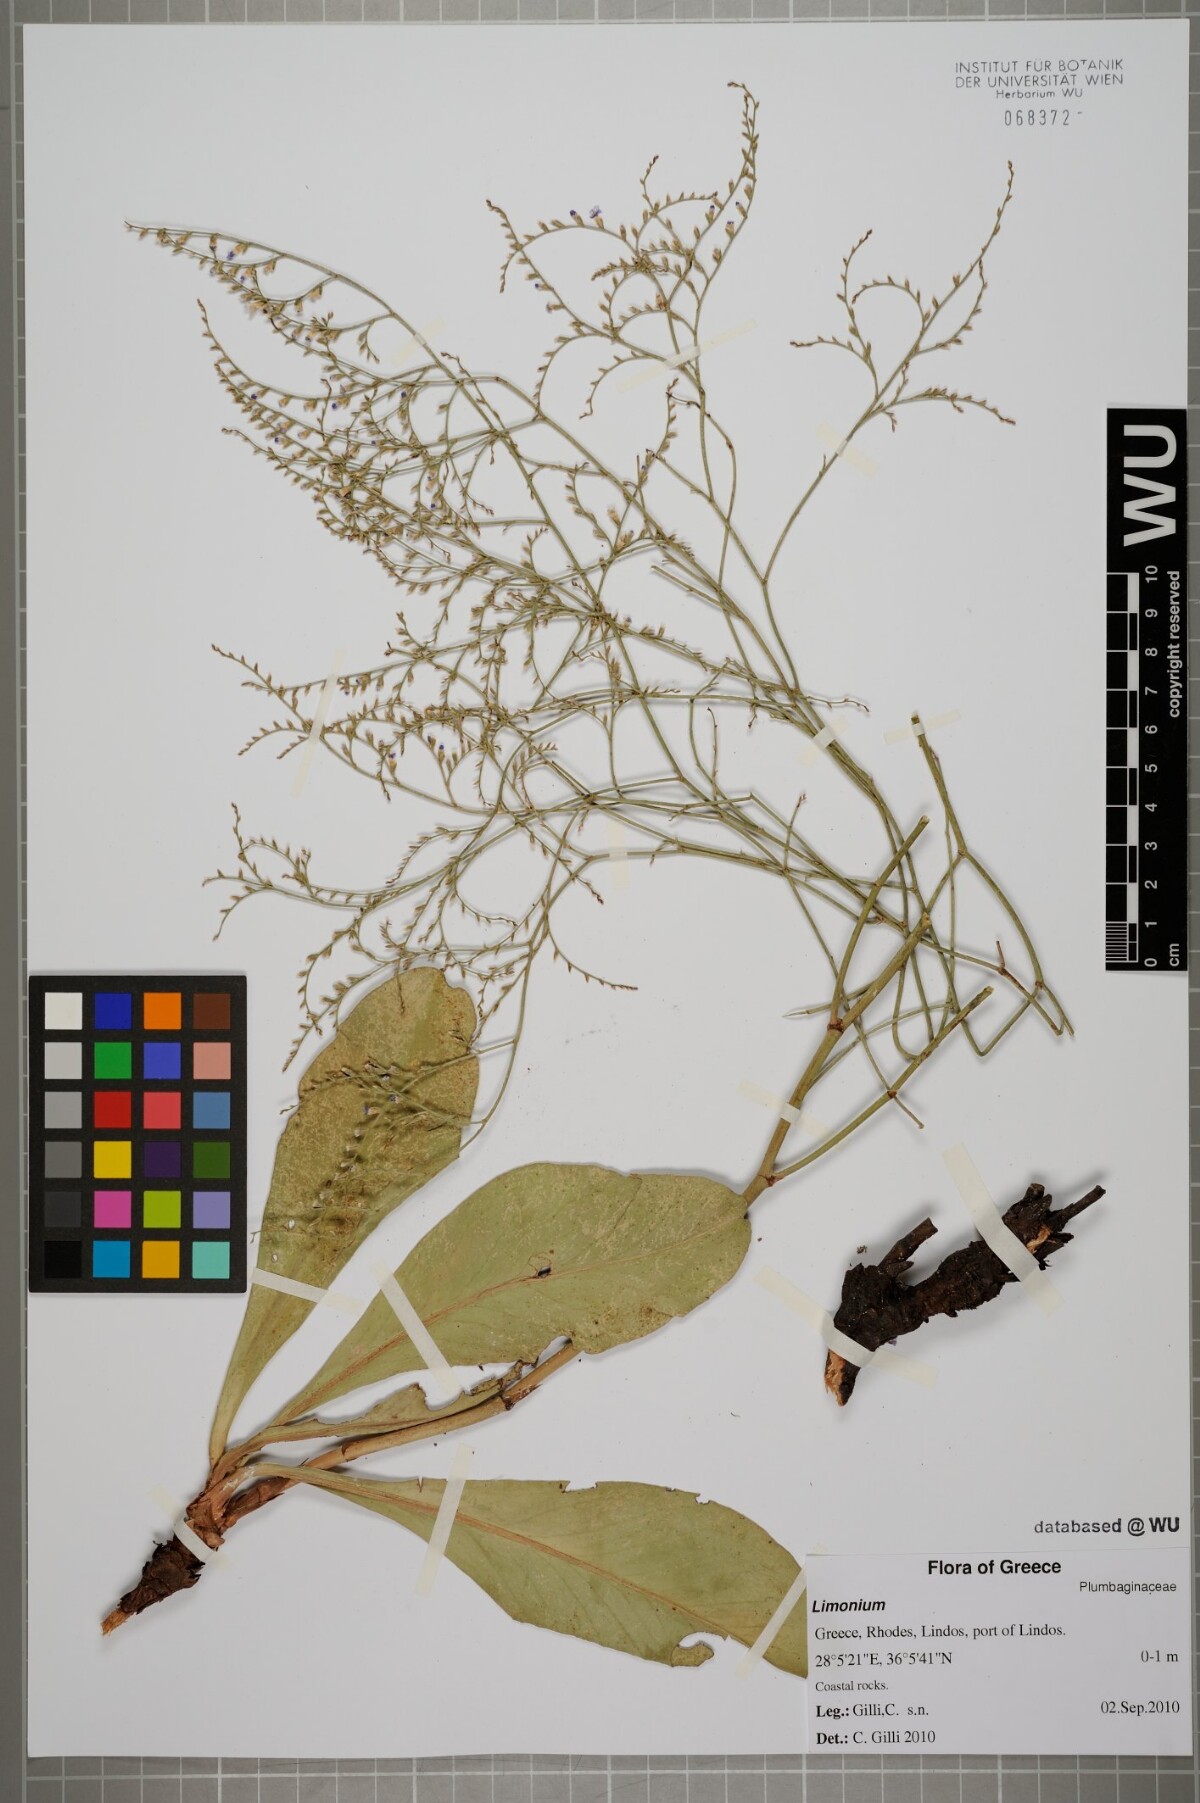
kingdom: Plantae
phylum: Tracheophyta
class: Magnoliopsida
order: Caryophyllales
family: Plumbaginaceae
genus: Limonium
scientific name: Limonium
